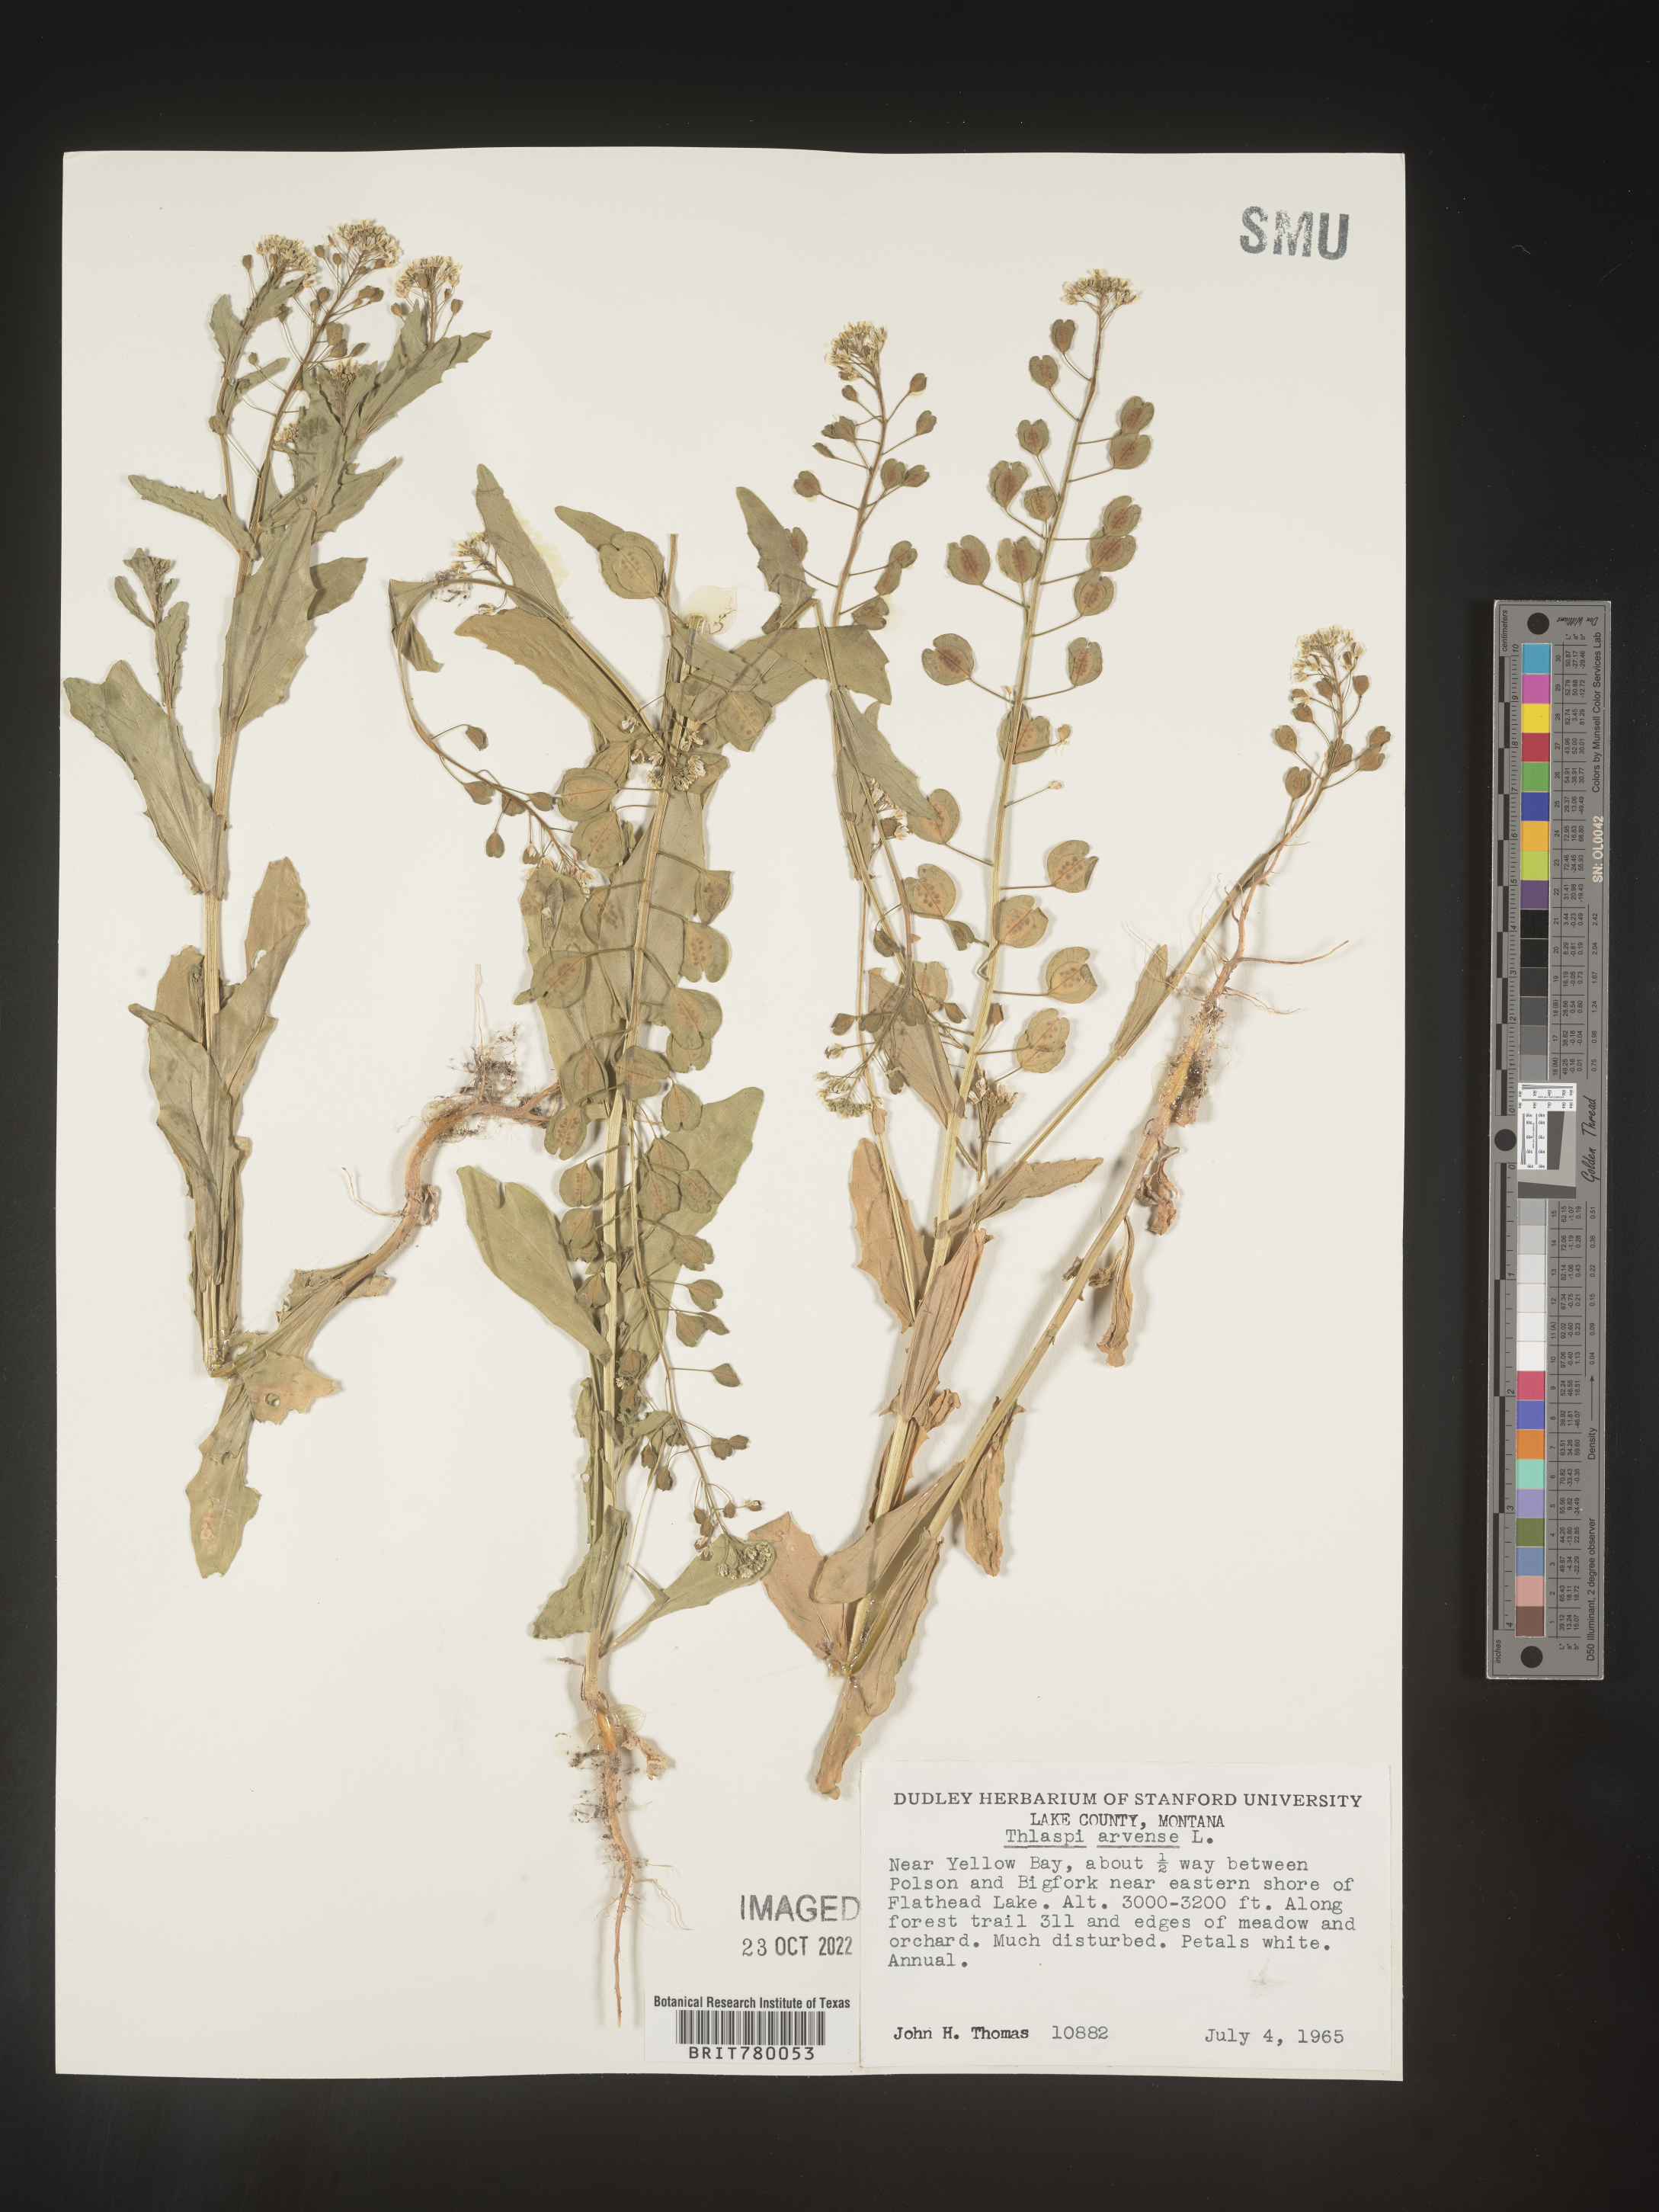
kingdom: Plantae
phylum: Tracheophyta
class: Magnoliopsida
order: Brassicales
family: Brassicaceae
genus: Thlaspi
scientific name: Thlaspi arvense
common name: Field pennycress
